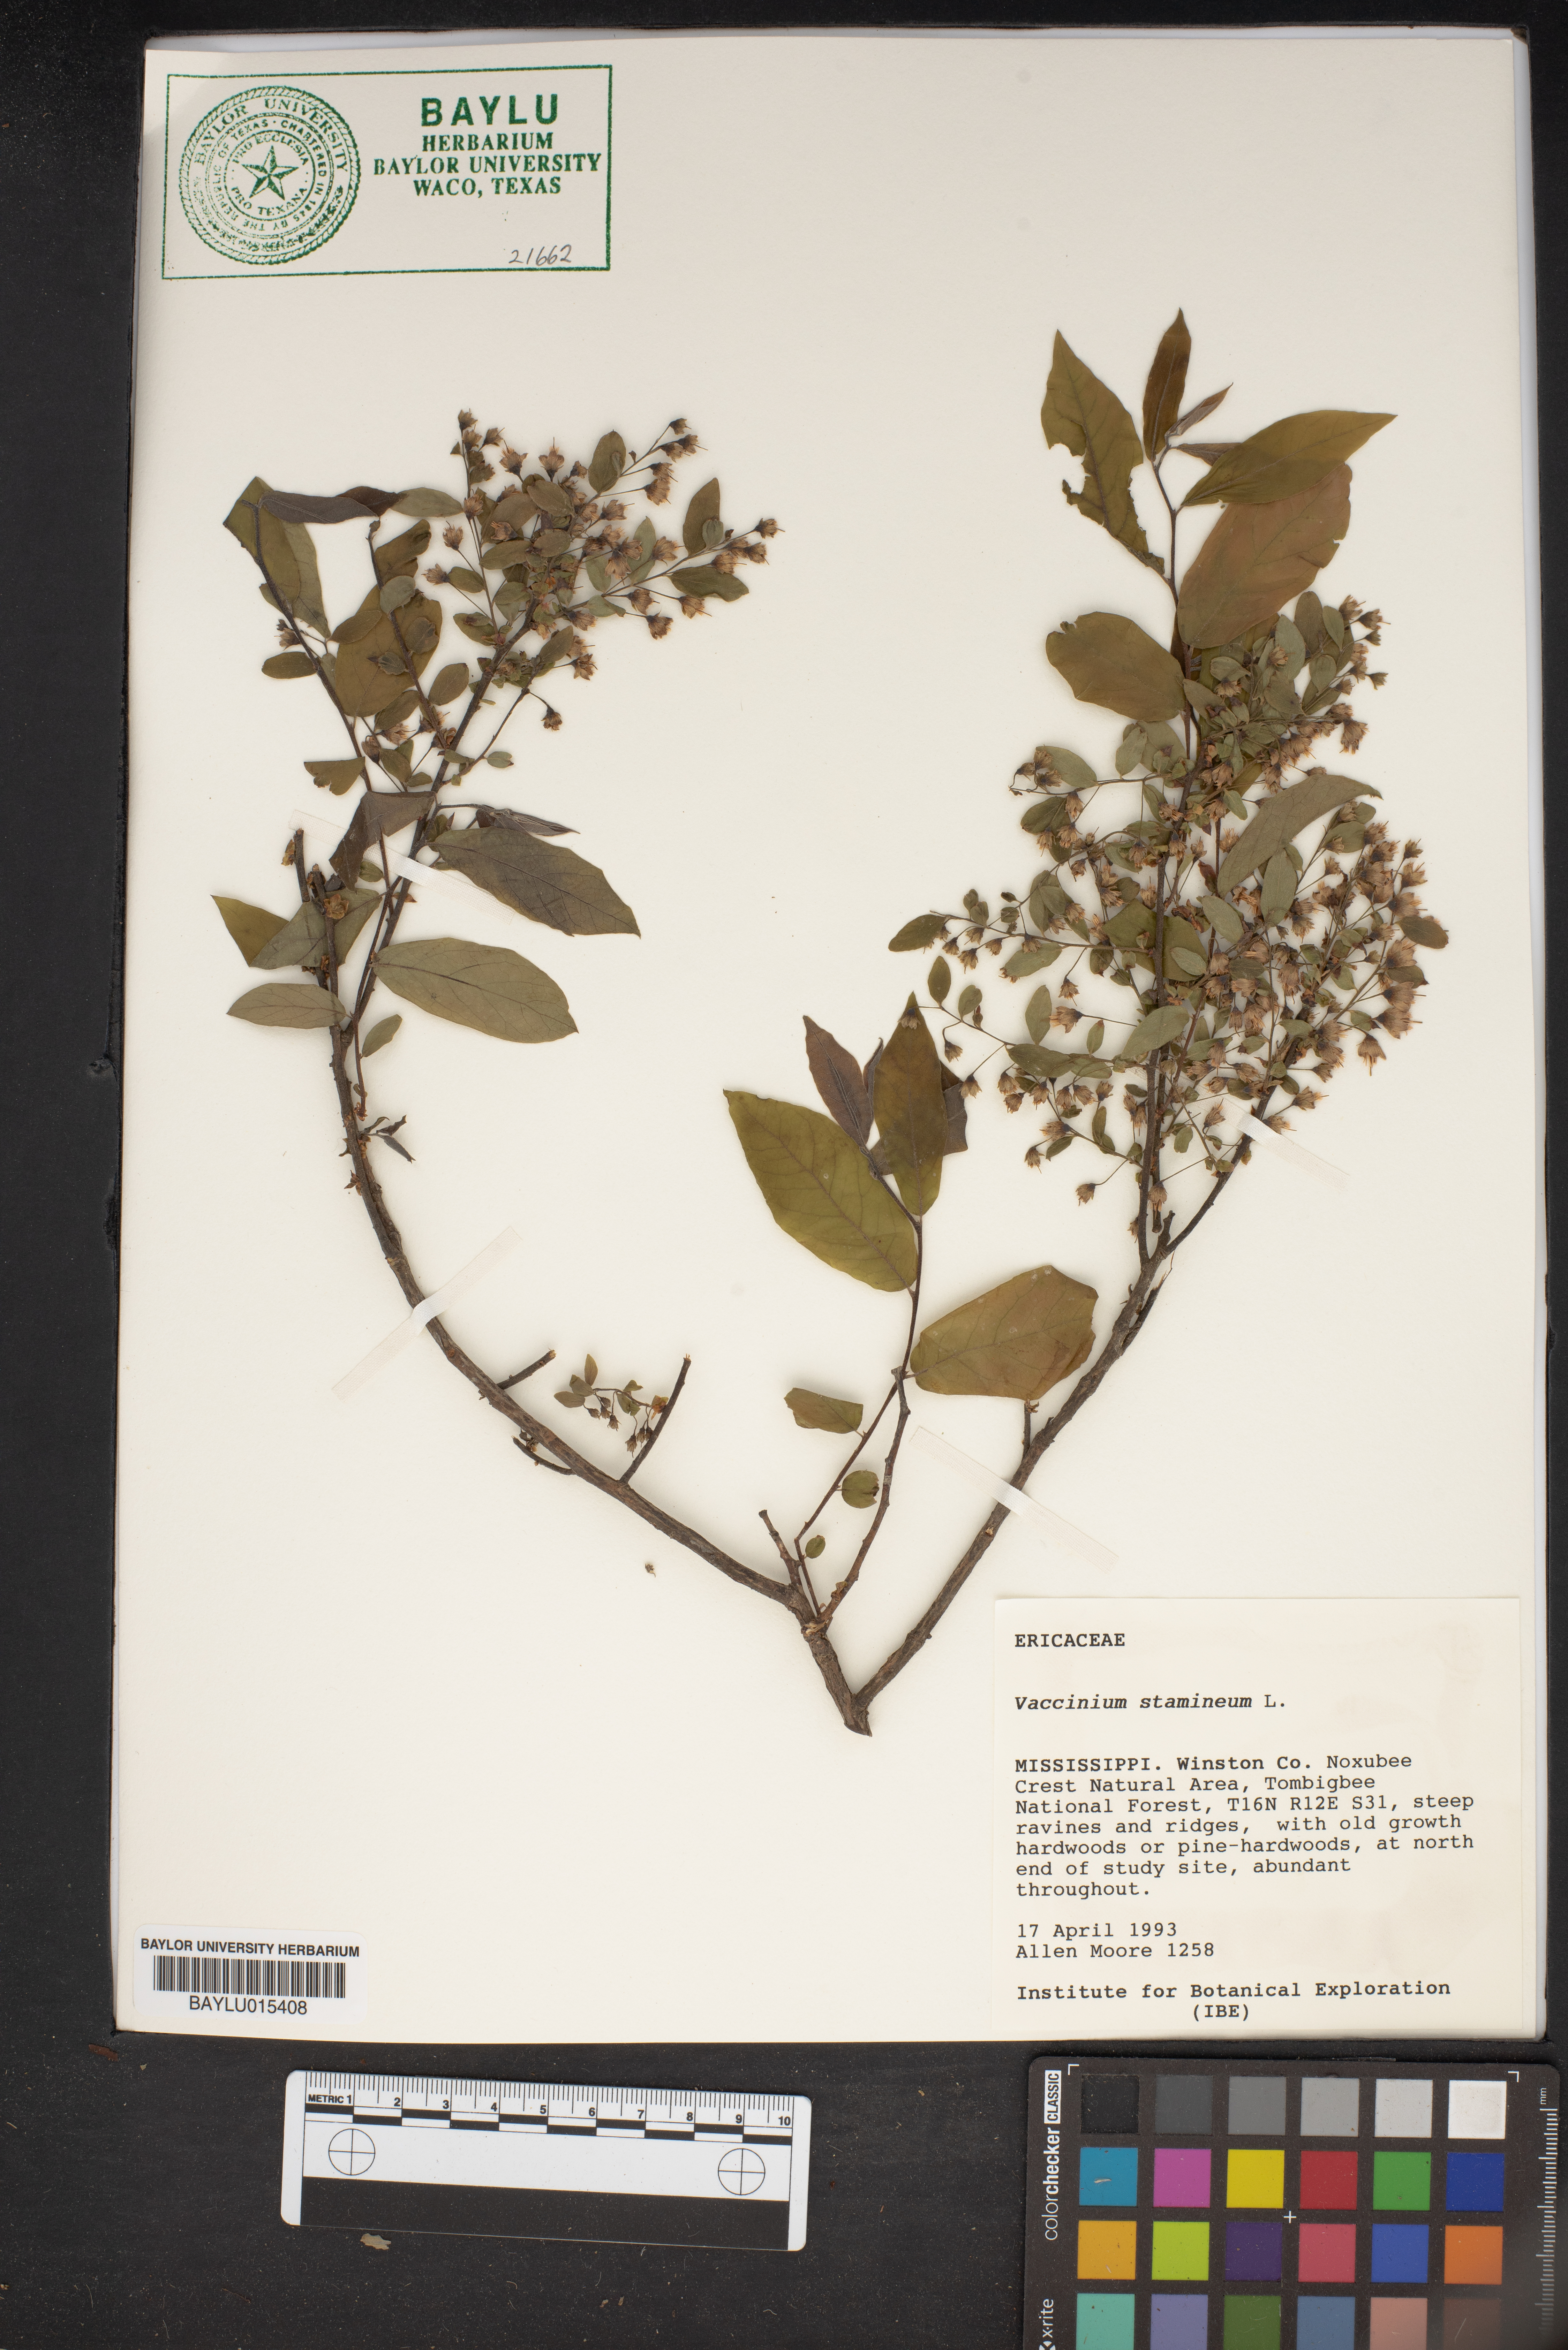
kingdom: Plantae
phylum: Tracheophyta
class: Magnoliopsida
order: Ericales
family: Ericaceae
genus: Vaccinium
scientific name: Vaccinium stamineum
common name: Deerberry
